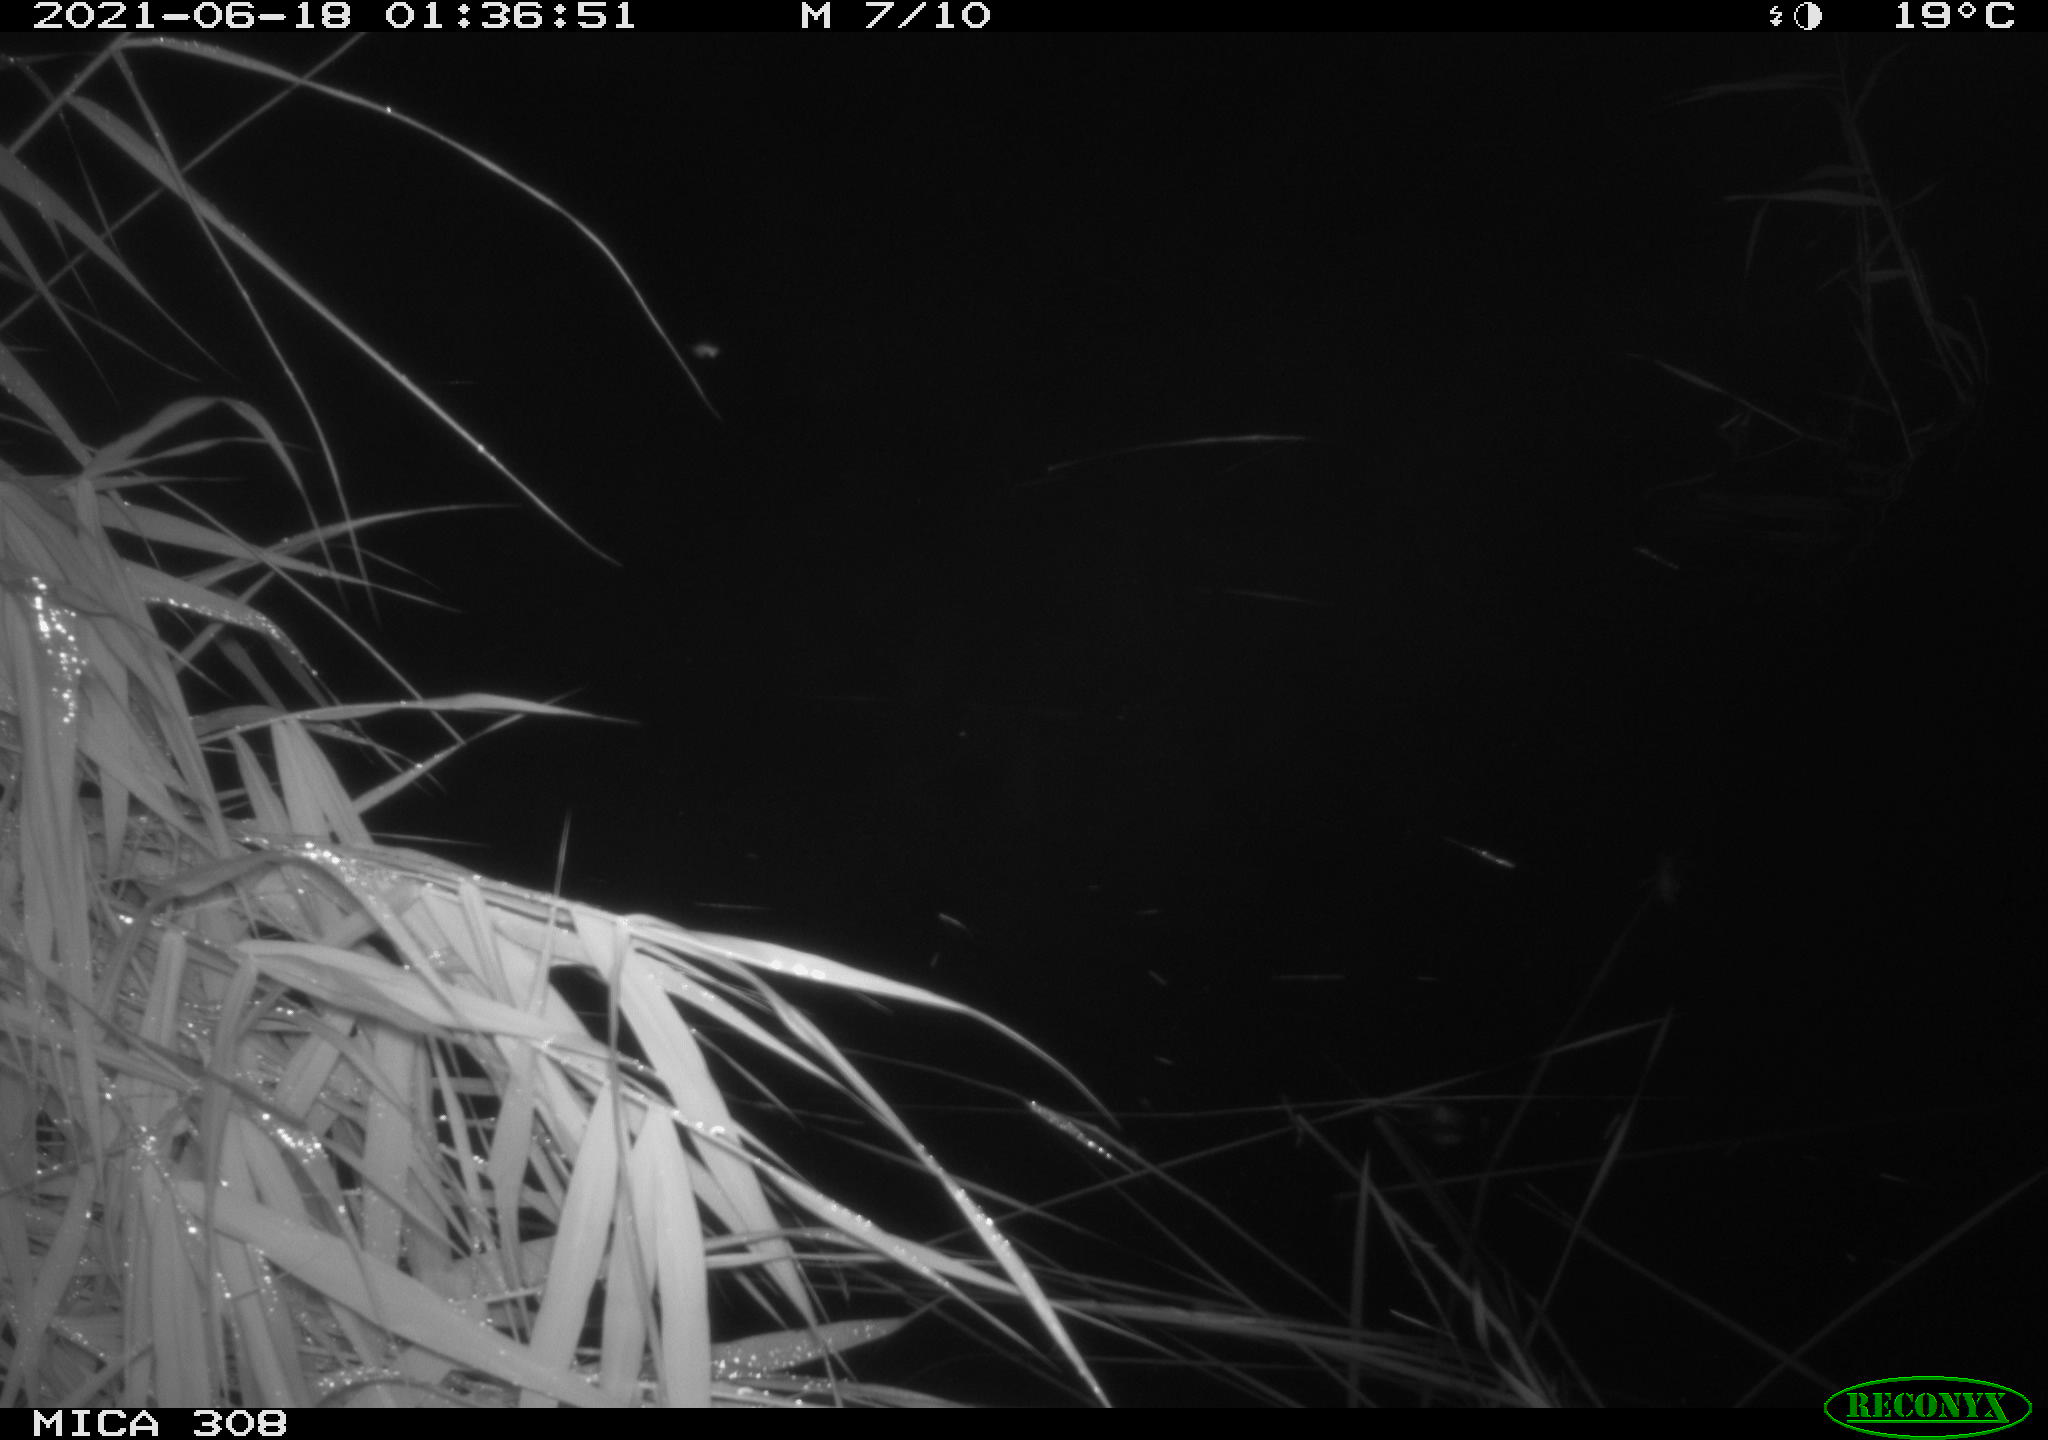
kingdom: Animalia
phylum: Chordata
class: Aves
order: Anseriformes
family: Anatidae
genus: Anas
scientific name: Anas platyrhynchos
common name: Mallard
